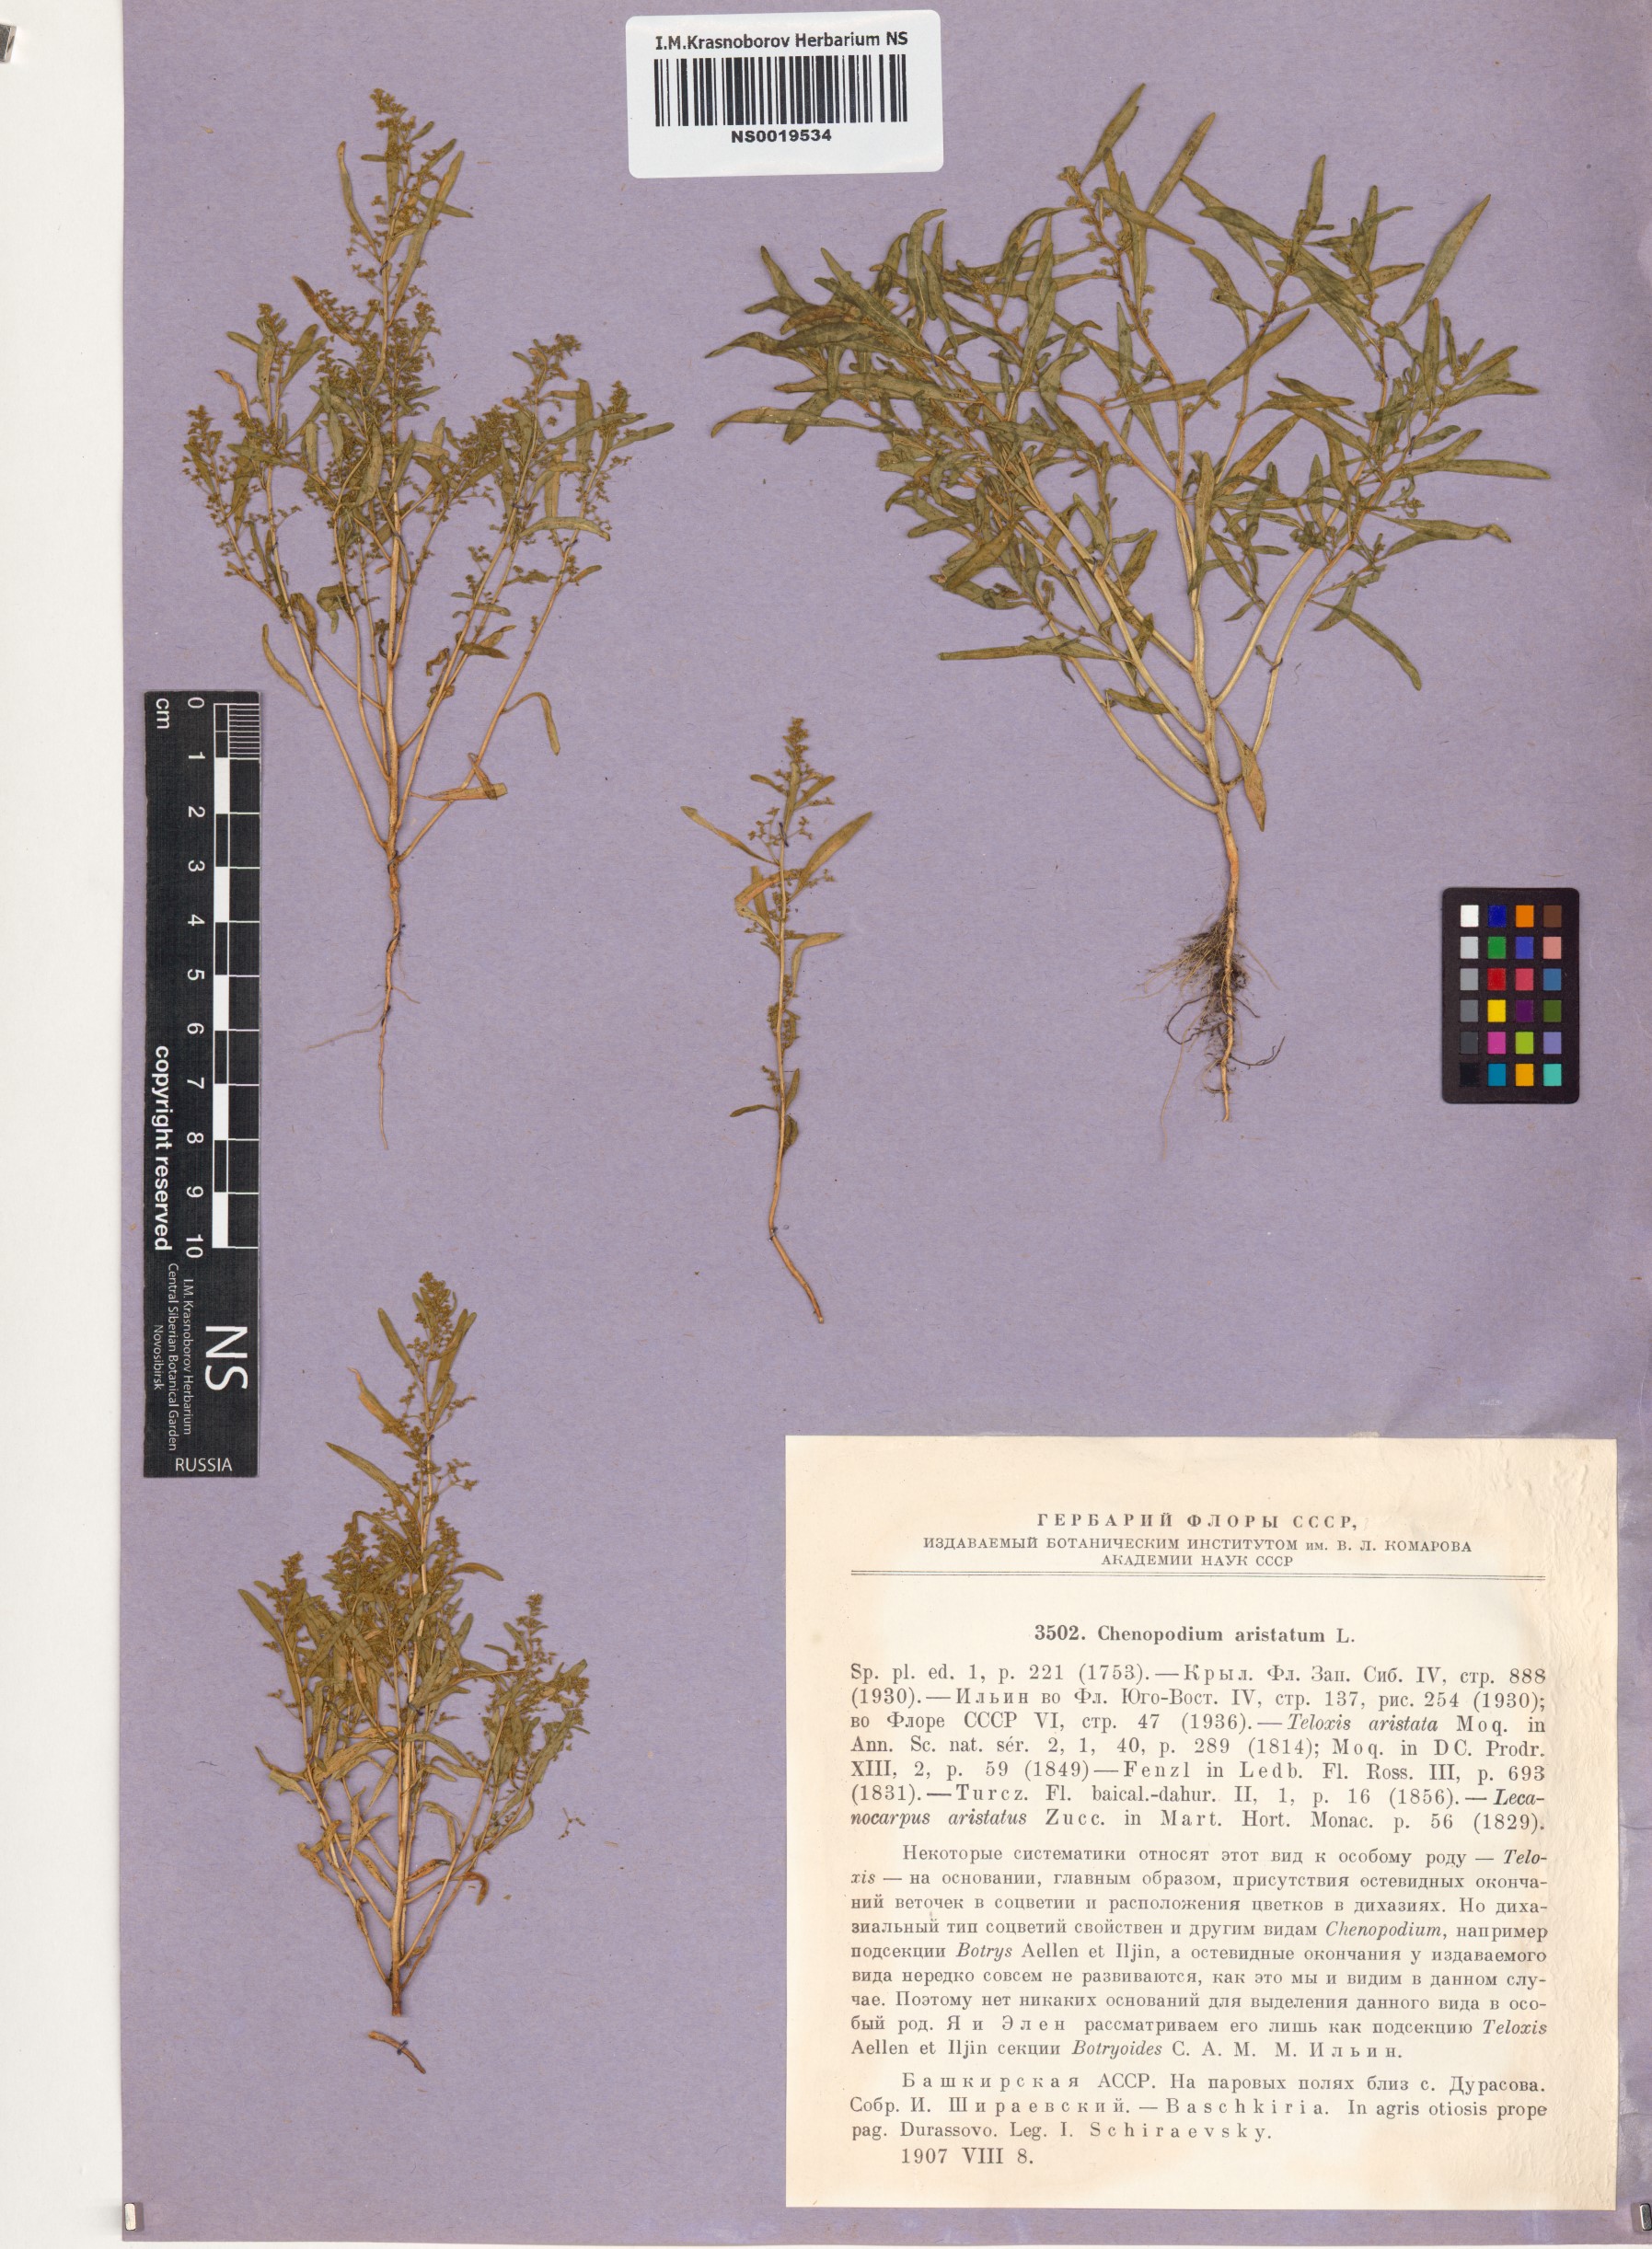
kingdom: Plantae
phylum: Tracheophyta
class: Magnoliopsida
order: Caryophyllales
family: Amaranthaceae
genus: Teloxys
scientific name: Teloxys aristata
